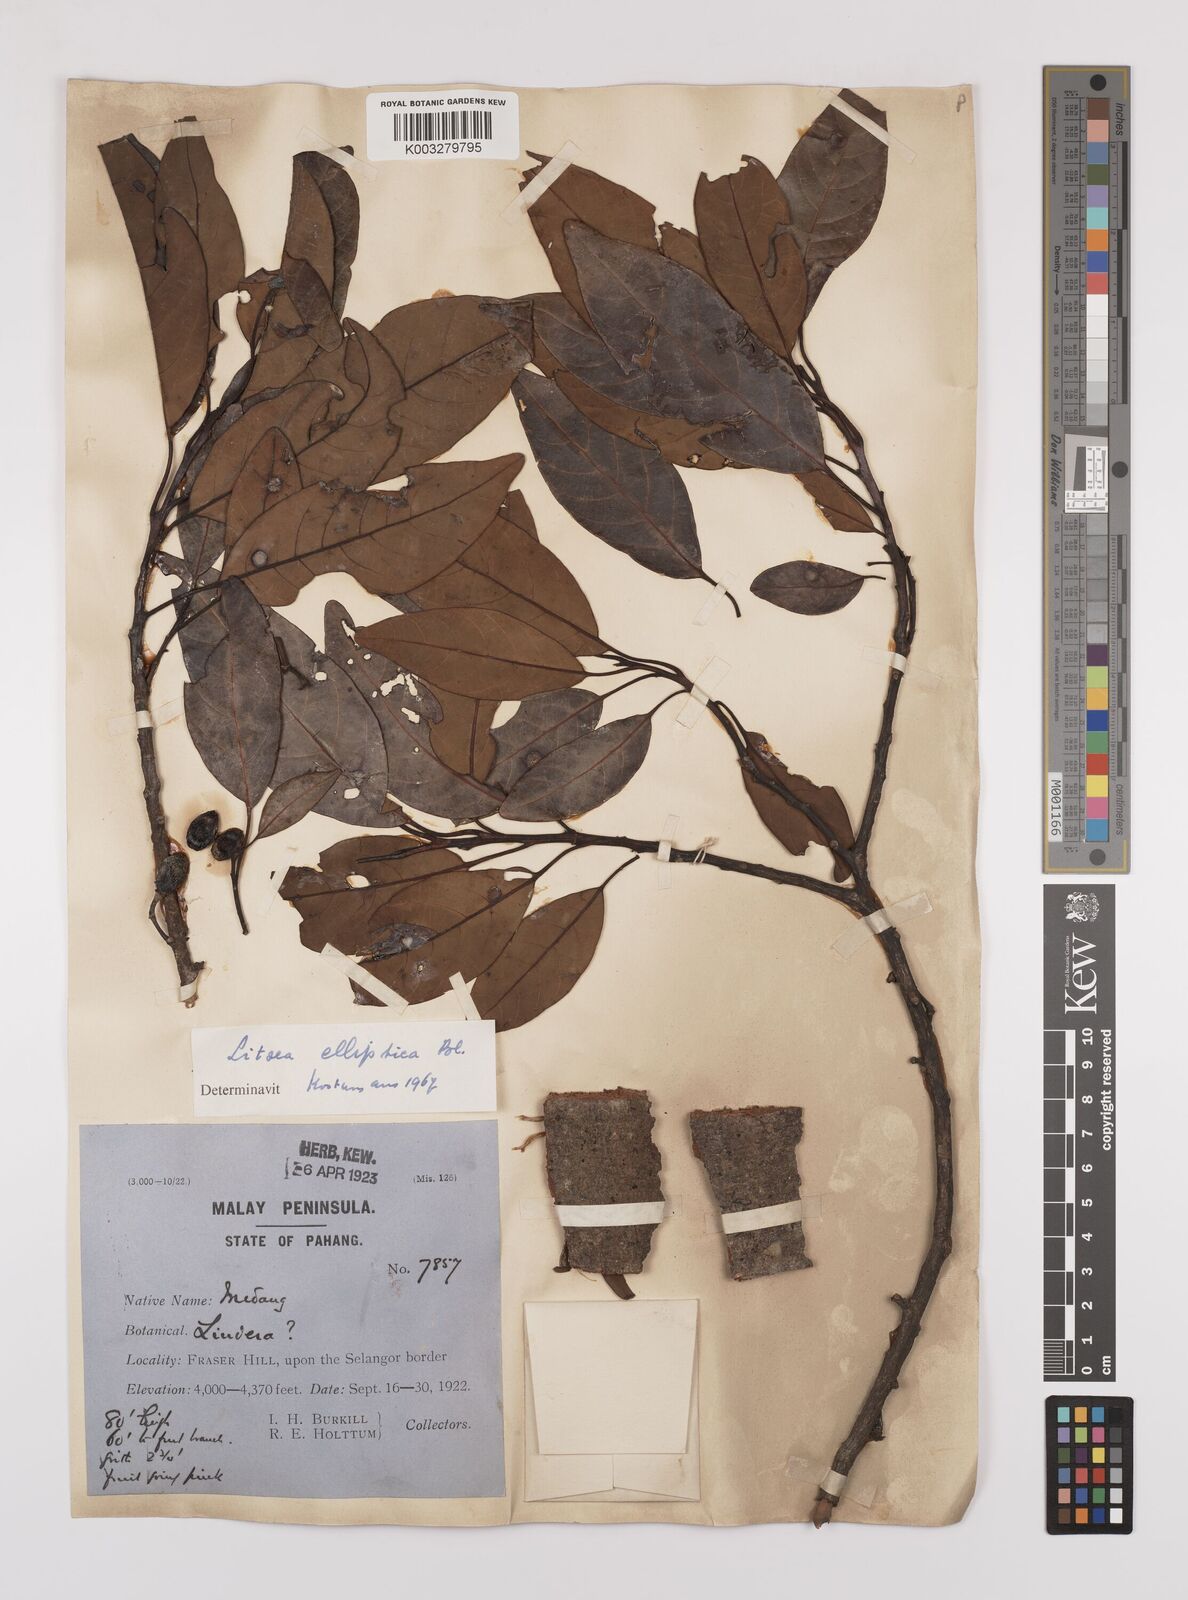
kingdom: Plantae
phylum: Tracheophyta
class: Magnoliopsida
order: Laurales
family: Lauraceae
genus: Litsea
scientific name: Litsea elliptica
